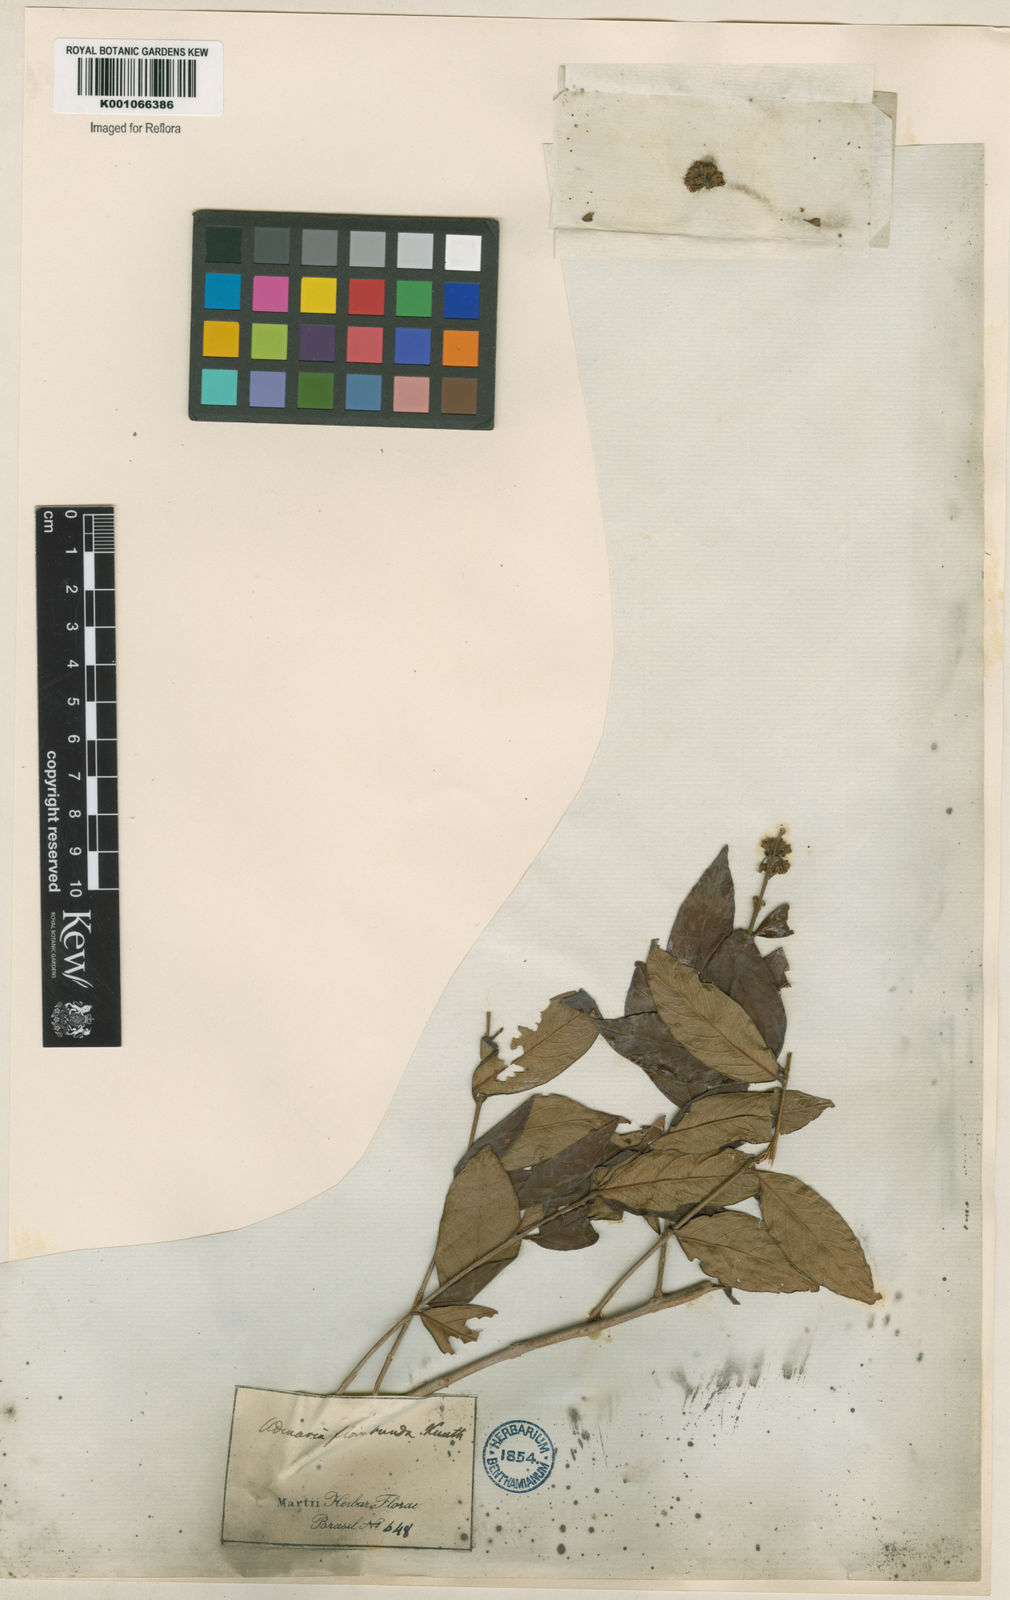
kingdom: Plantae
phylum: Tracheophyta
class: Magnoliopsida
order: Myrtales
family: Lythraceae
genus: Adenaria
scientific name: Adenaria floribunda
